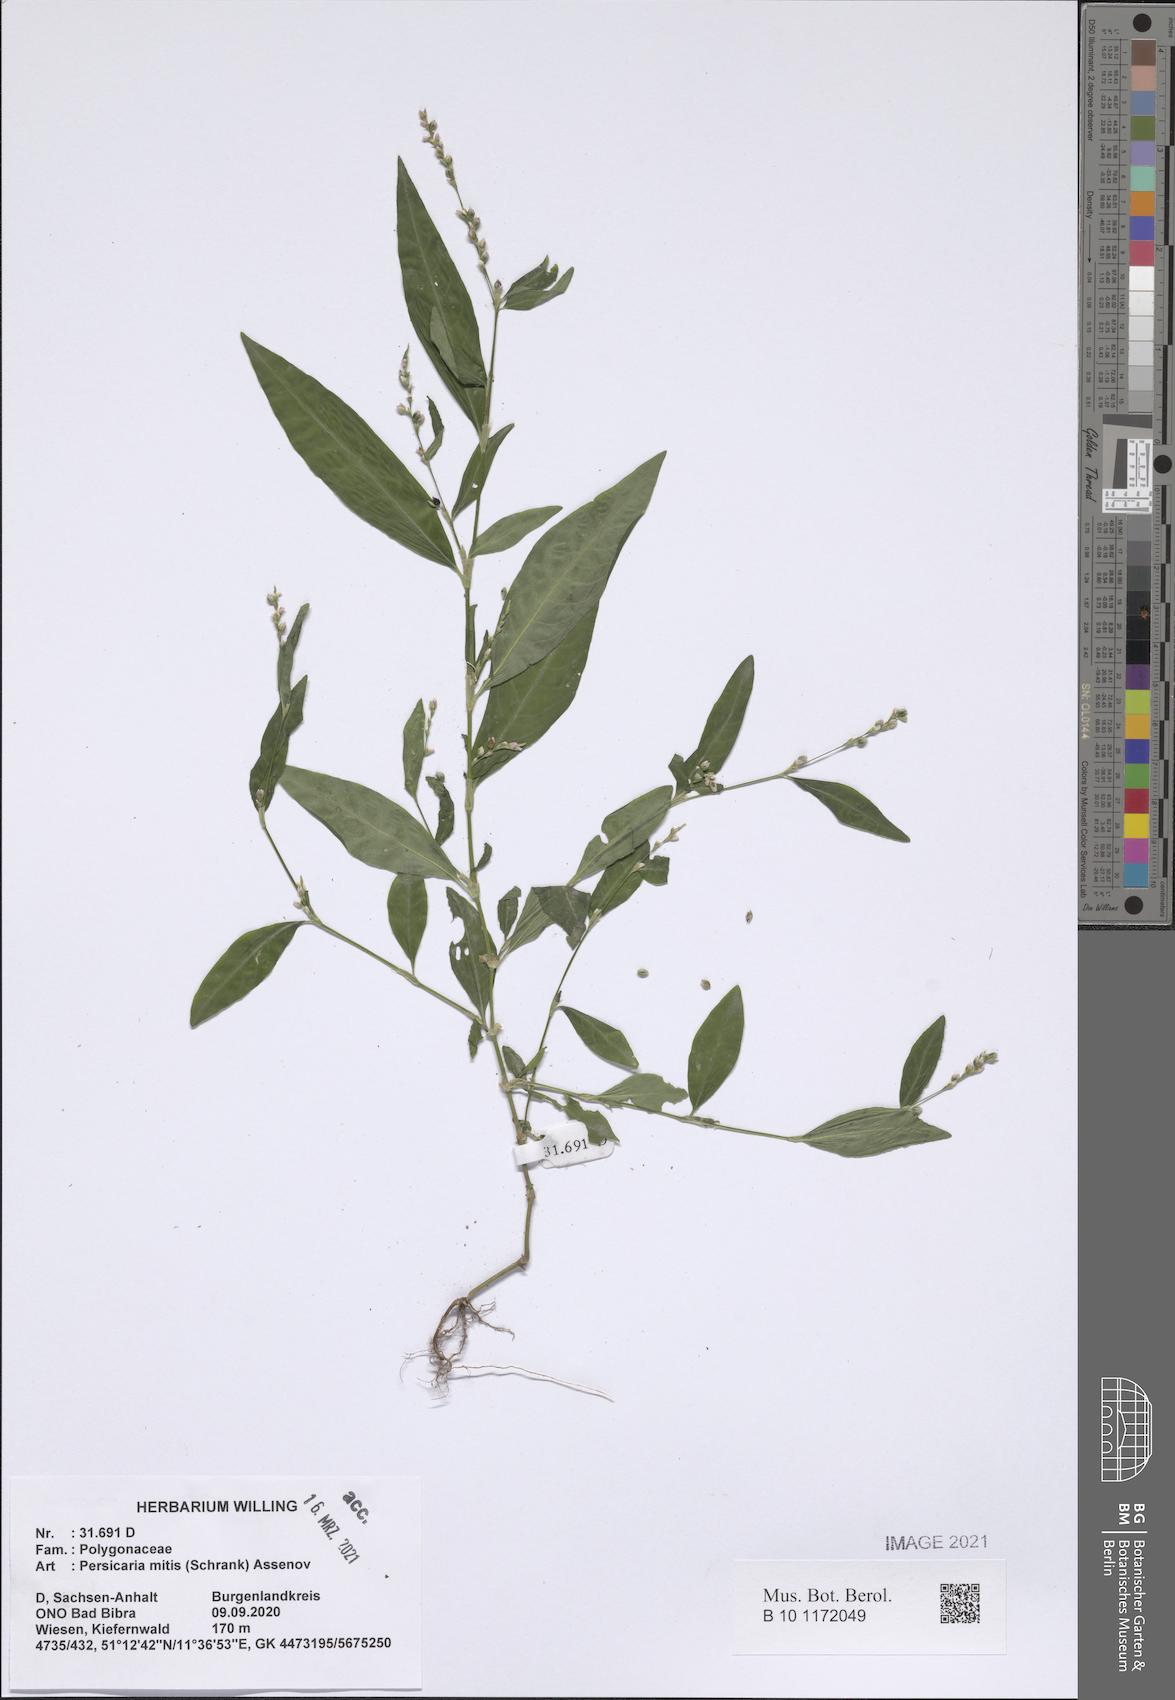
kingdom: Plantae
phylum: Tracheophyta
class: Magnoliopsida
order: Caryophyllales
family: Polygonaceae
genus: Persicaria
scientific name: Persicaria mitis
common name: Tasteless water-pepper
